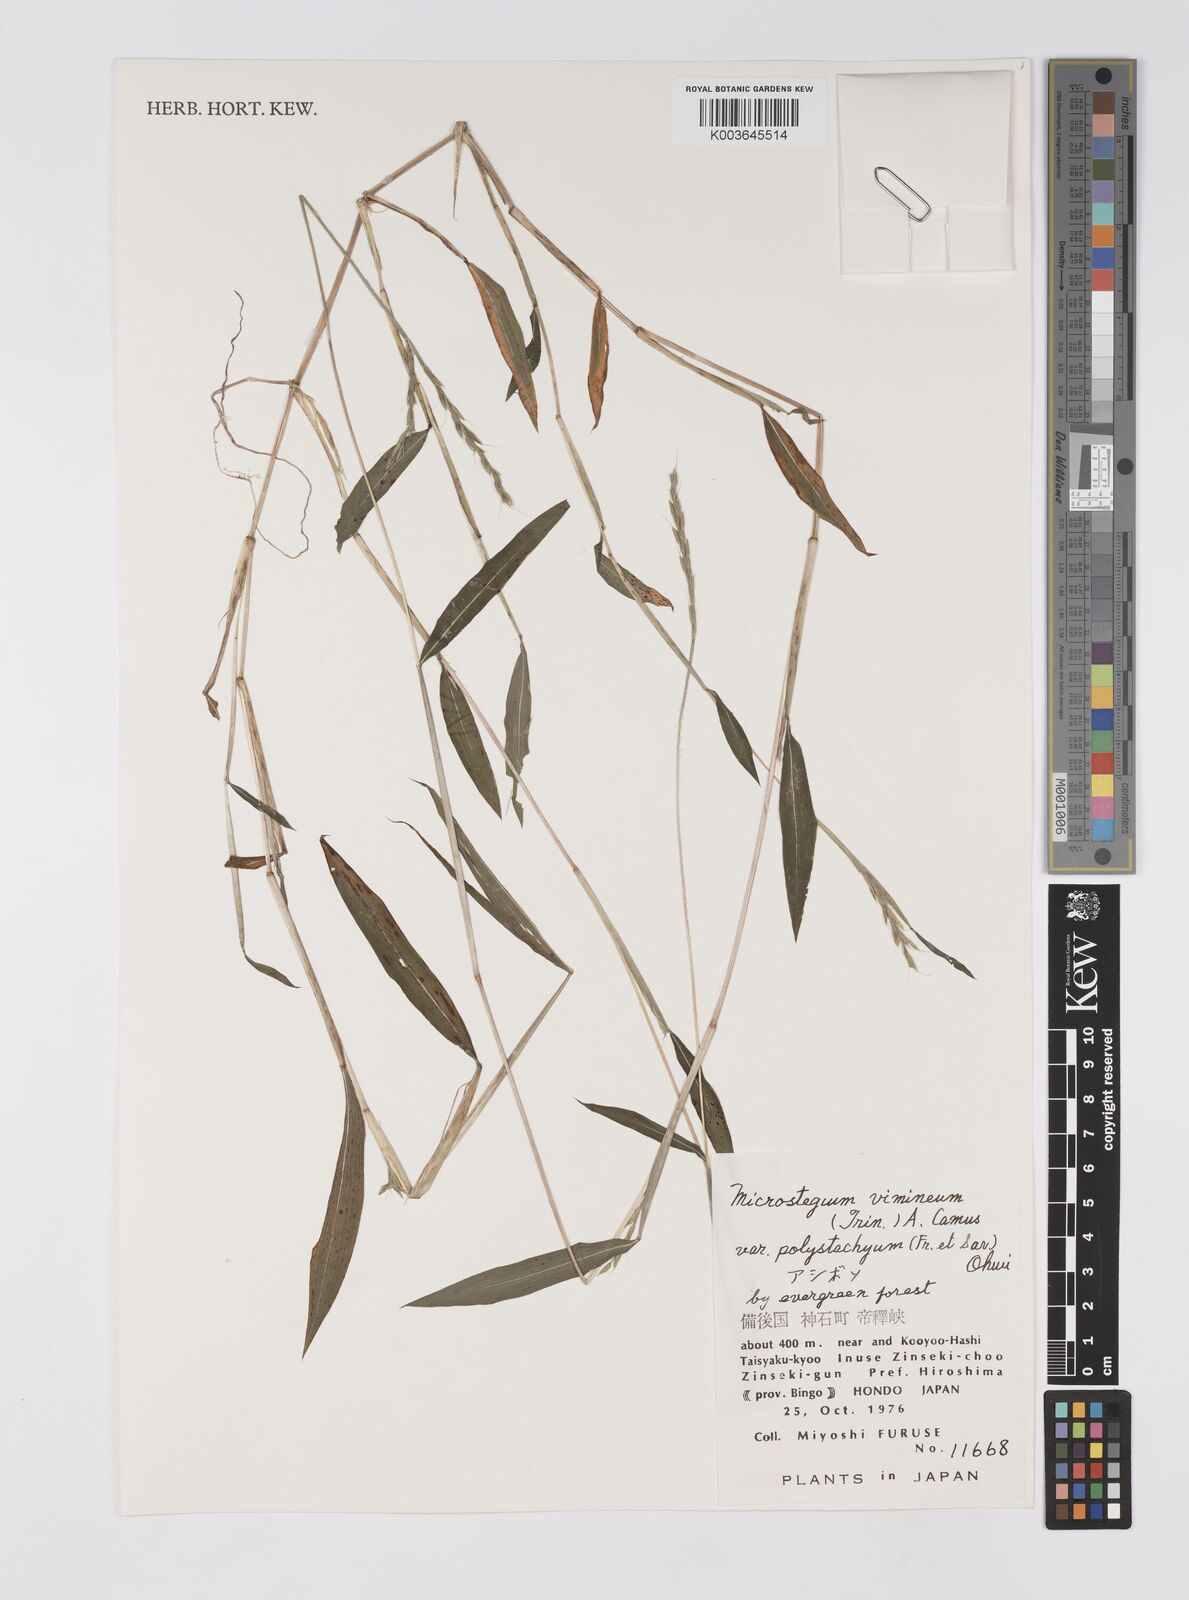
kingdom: Plantae
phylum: Tracheophyta
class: Liliopsida
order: Poales
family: Poaceae
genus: Microstegium
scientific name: Microstegium vimineum
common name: Japanese stiltgrass
